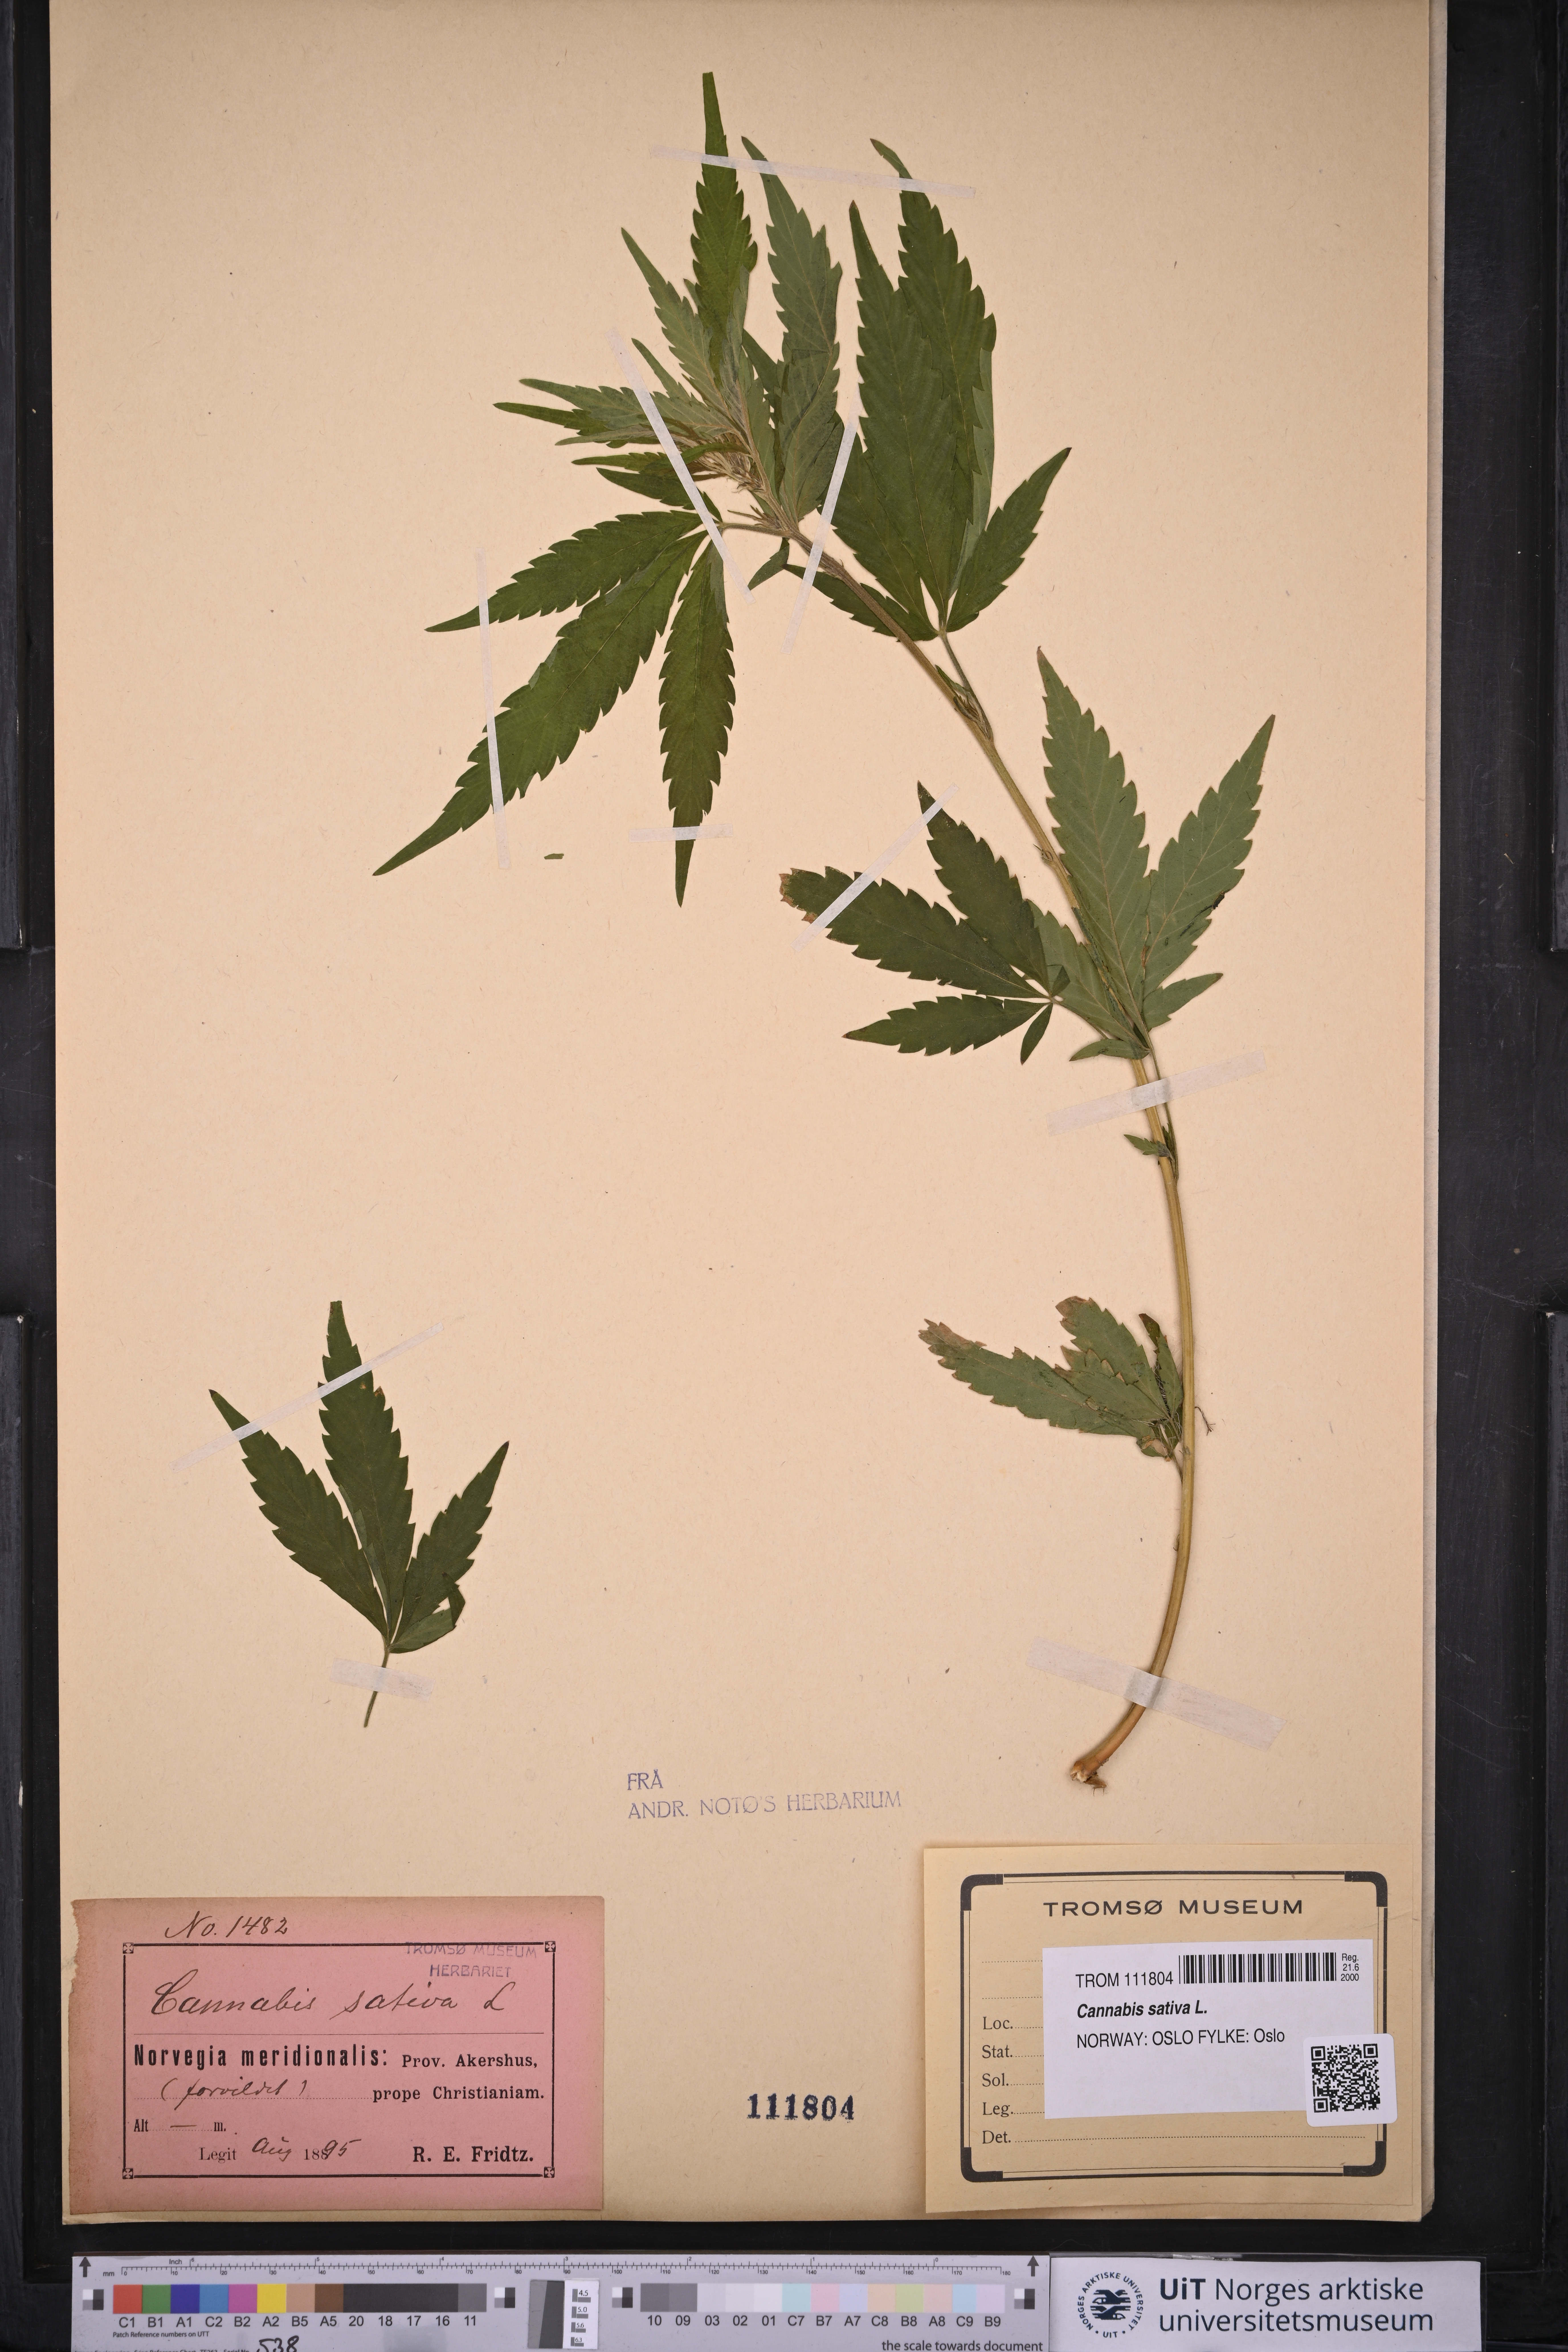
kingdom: Plantae
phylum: Tracheophyta
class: Magnoliopsida
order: Rosales
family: Cannabaceae
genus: Cannabis
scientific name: Cannabis sativa
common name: Hemp
